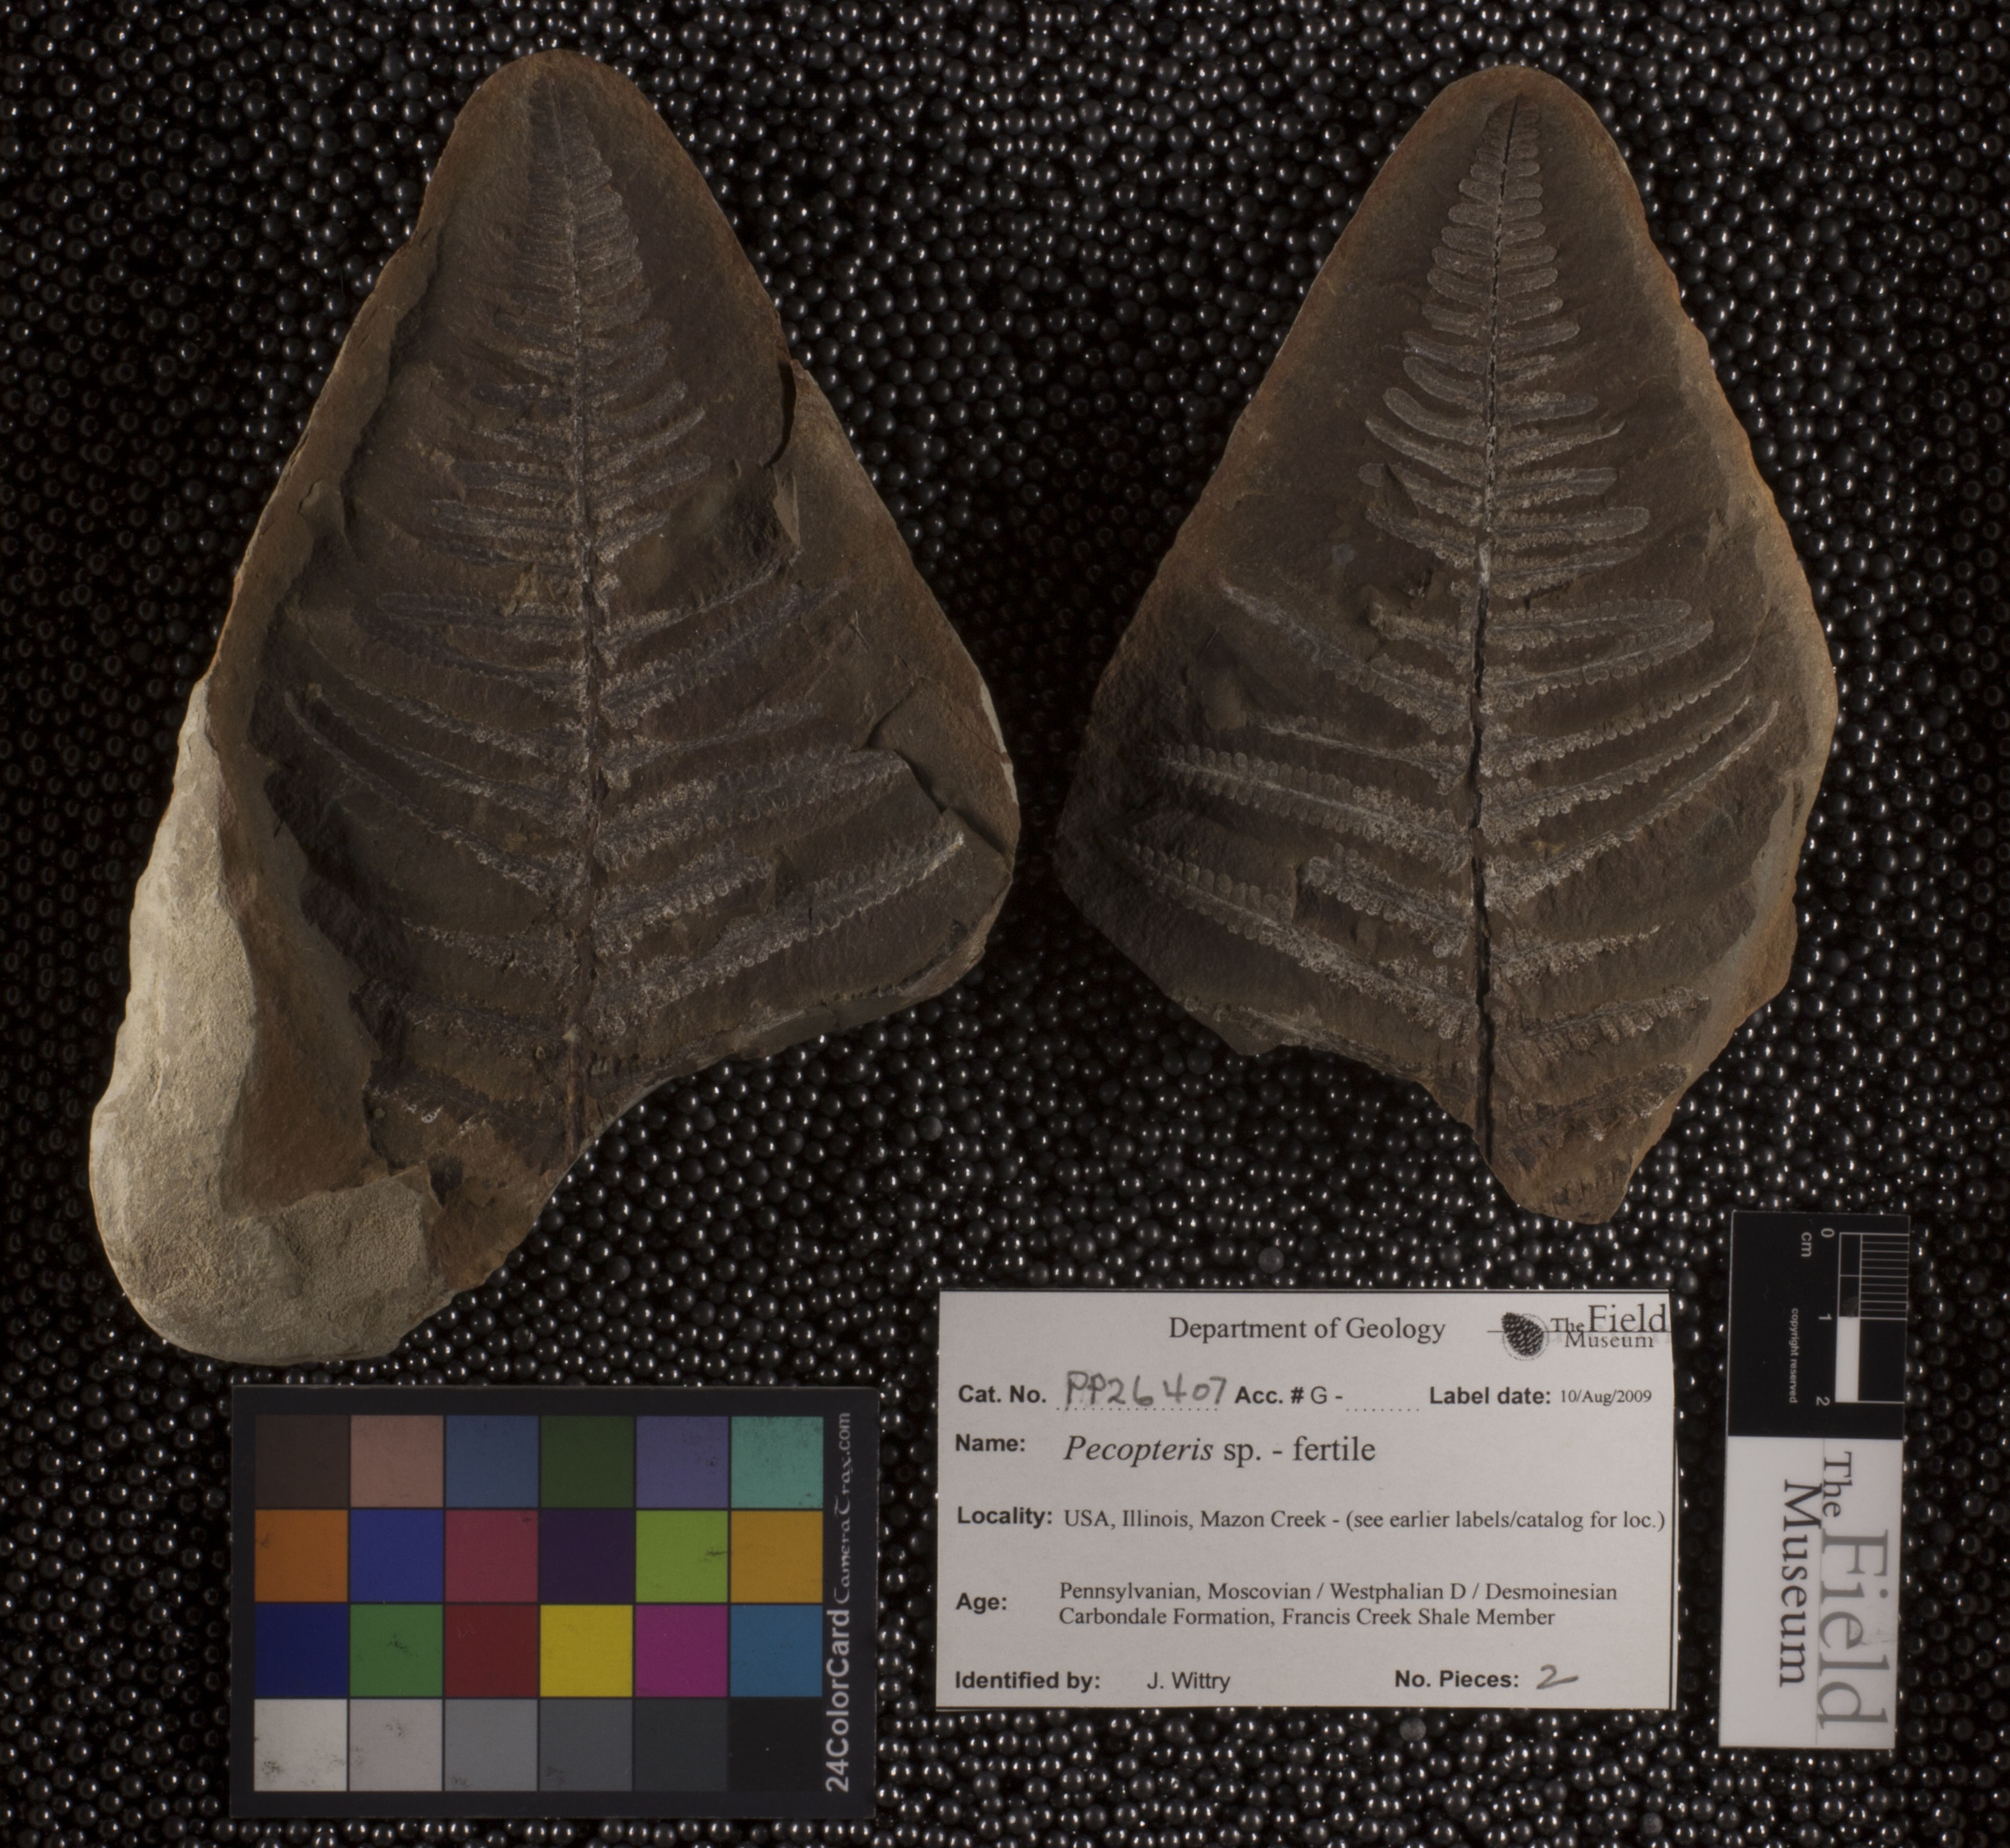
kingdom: Plantae
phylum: Tracheophyta
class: Polypodiopsida
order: Marattiales
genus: Cyathocarpus
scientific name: Cyathocarpus
